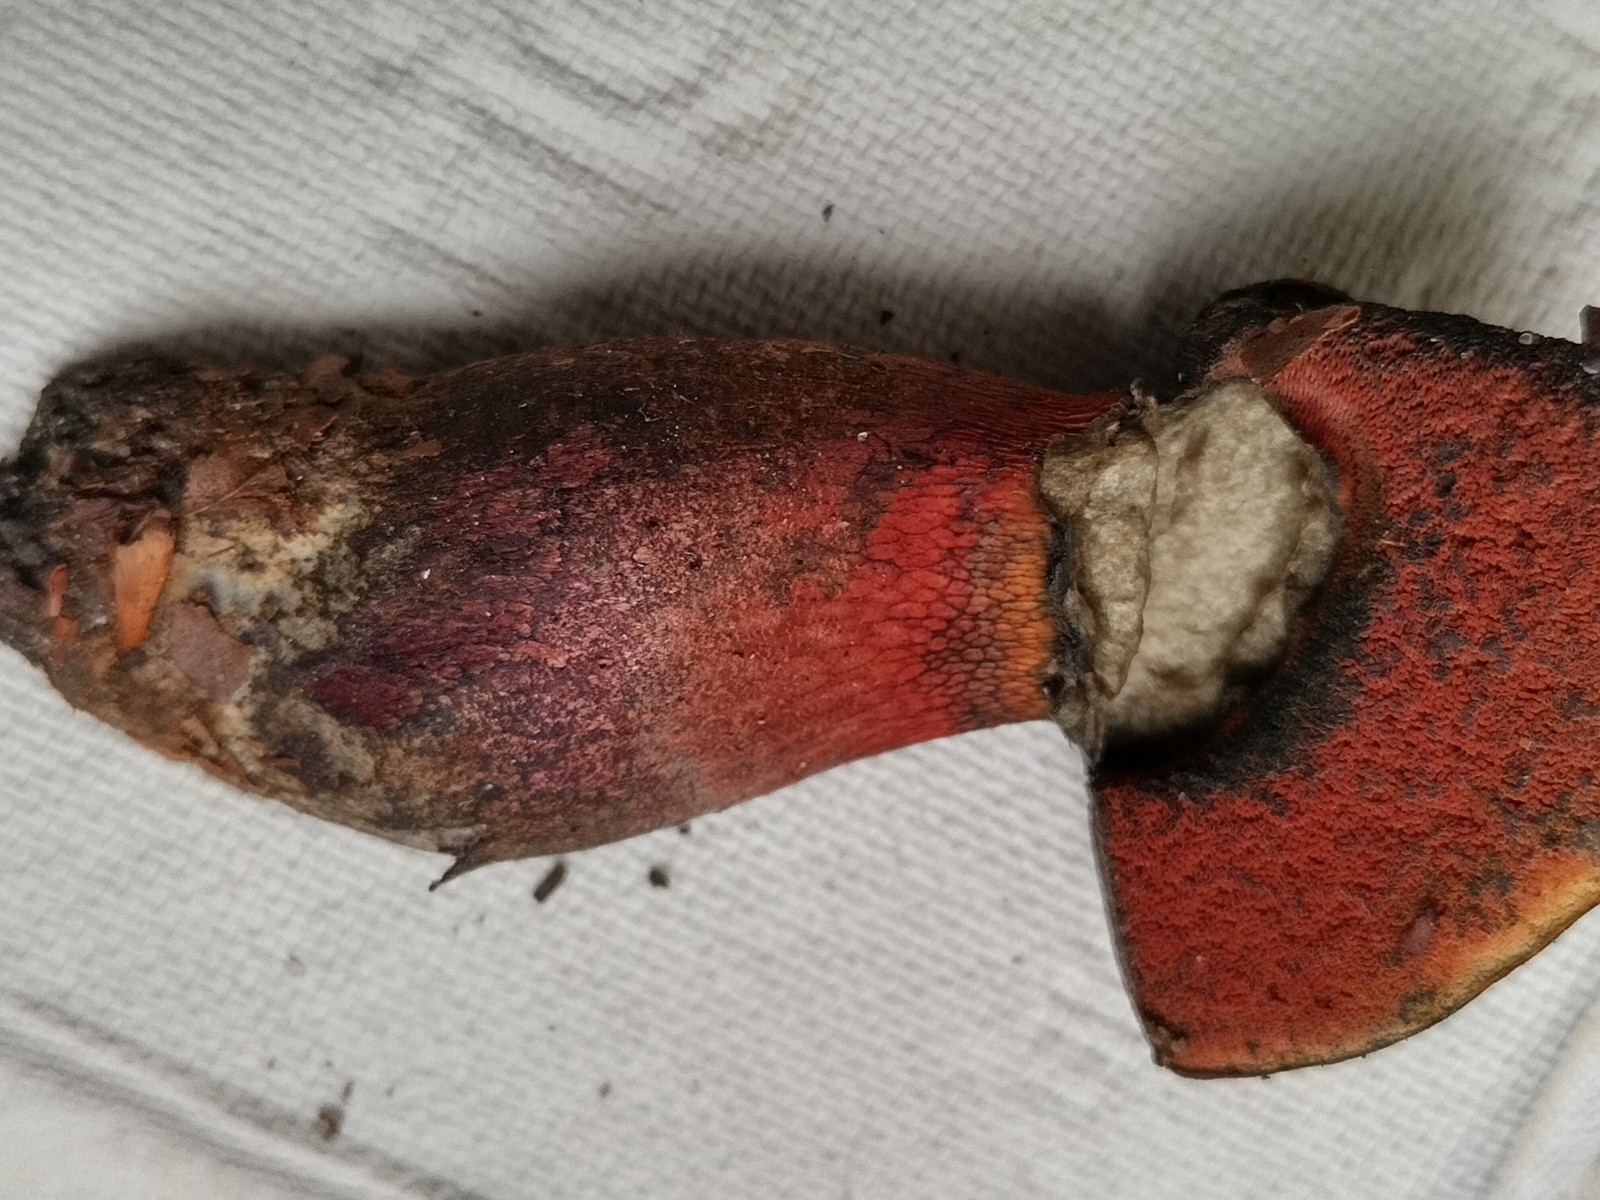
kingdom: Fungi
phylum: Basidiomycota
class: Agaricomycetes
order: Boletales
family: Boletaceae
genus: Suillellus
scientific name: Suillellus
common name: indigorørhat
